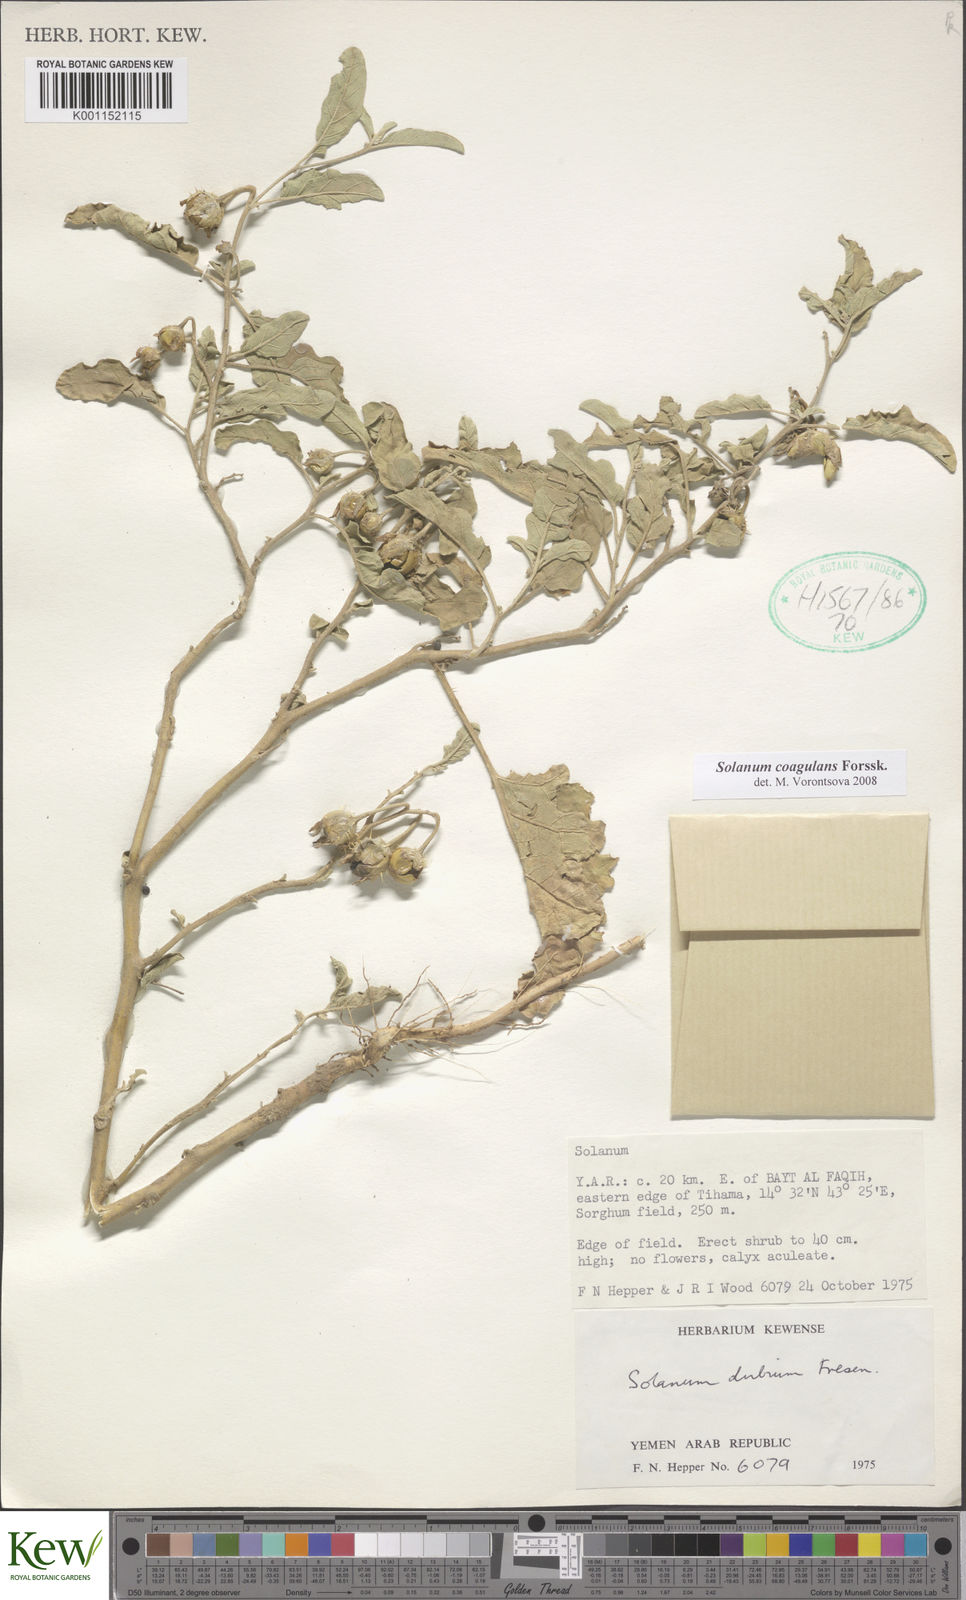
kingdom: Plantae
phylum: Tracheophyta
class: Magnoliopsida
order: Solanales
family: Solanaceae
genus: Solanum
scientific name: Solanum coagulans
